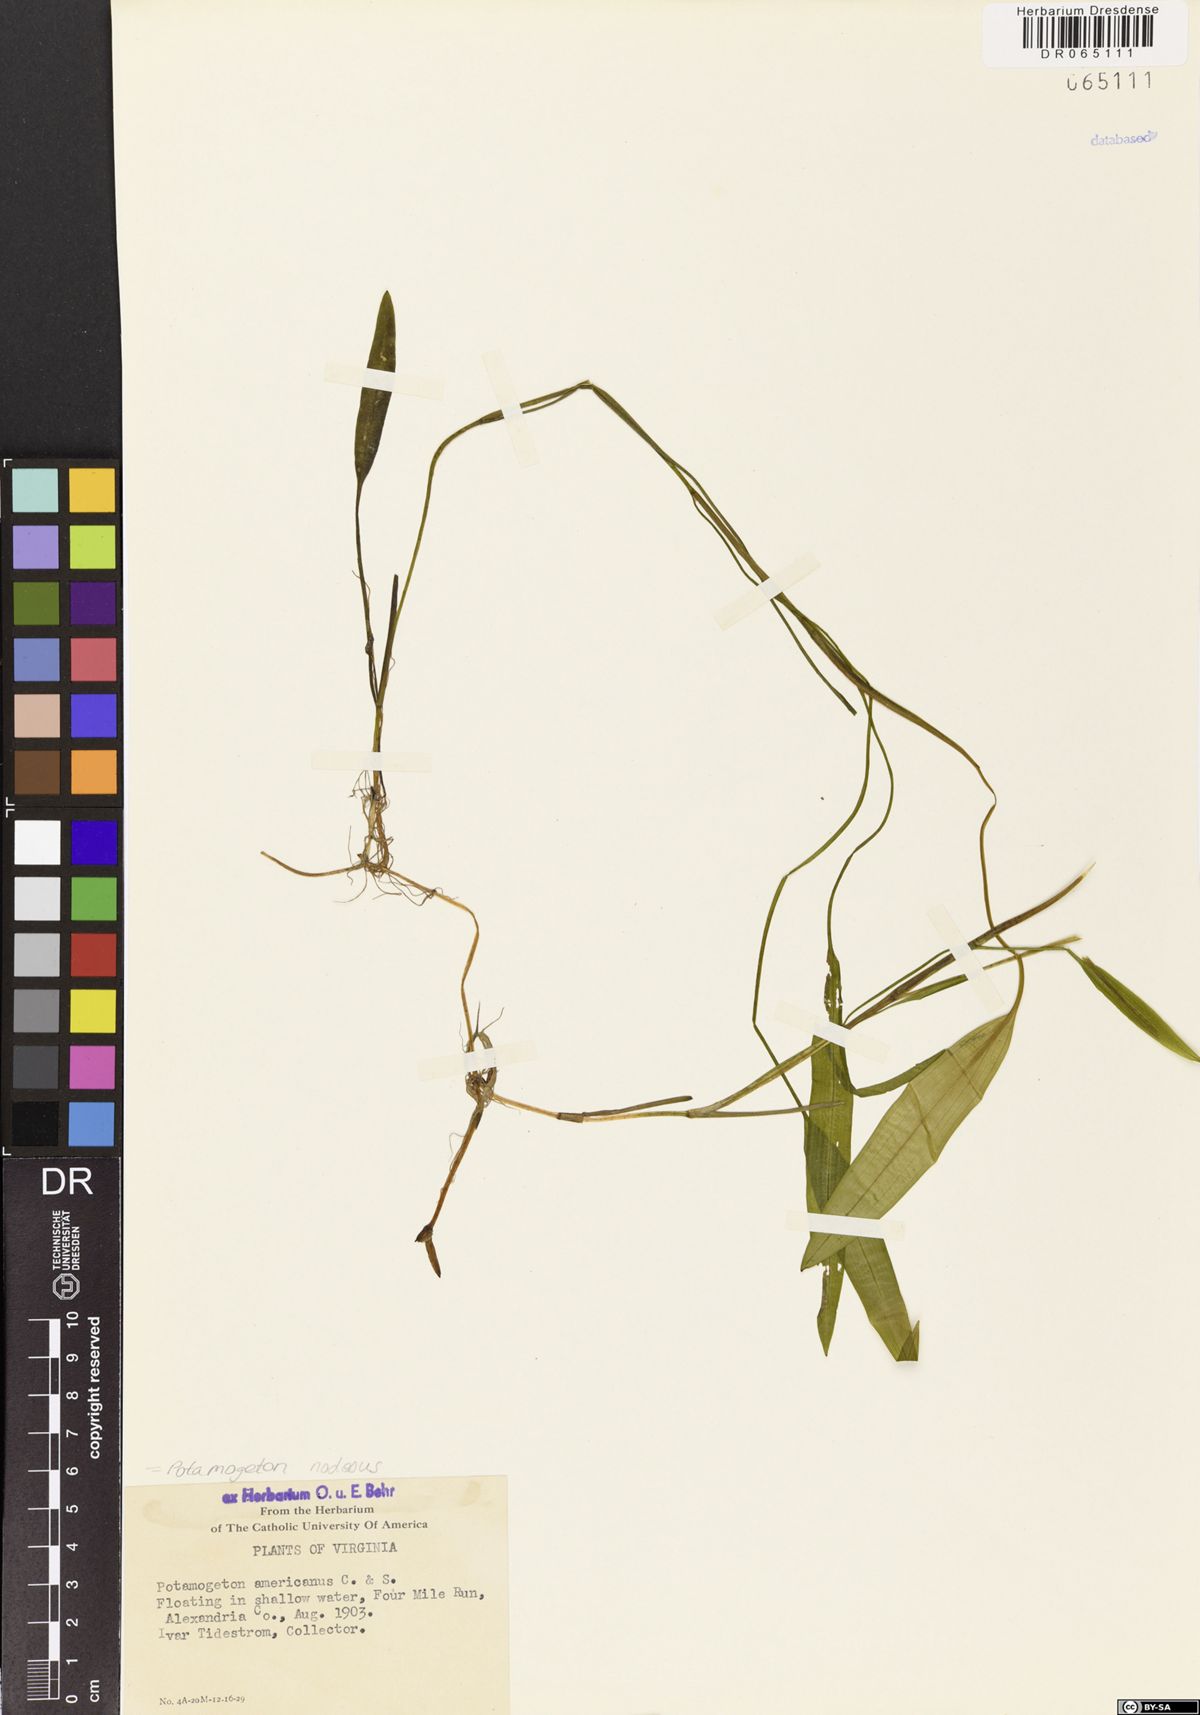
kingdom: Plantae
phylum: Tracheophyta
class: Liliopsida
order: Alismatales
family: Potamogetonaceae
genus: Potamogeton
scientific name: Potamogeton nodosus
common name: Loddon pondweed
